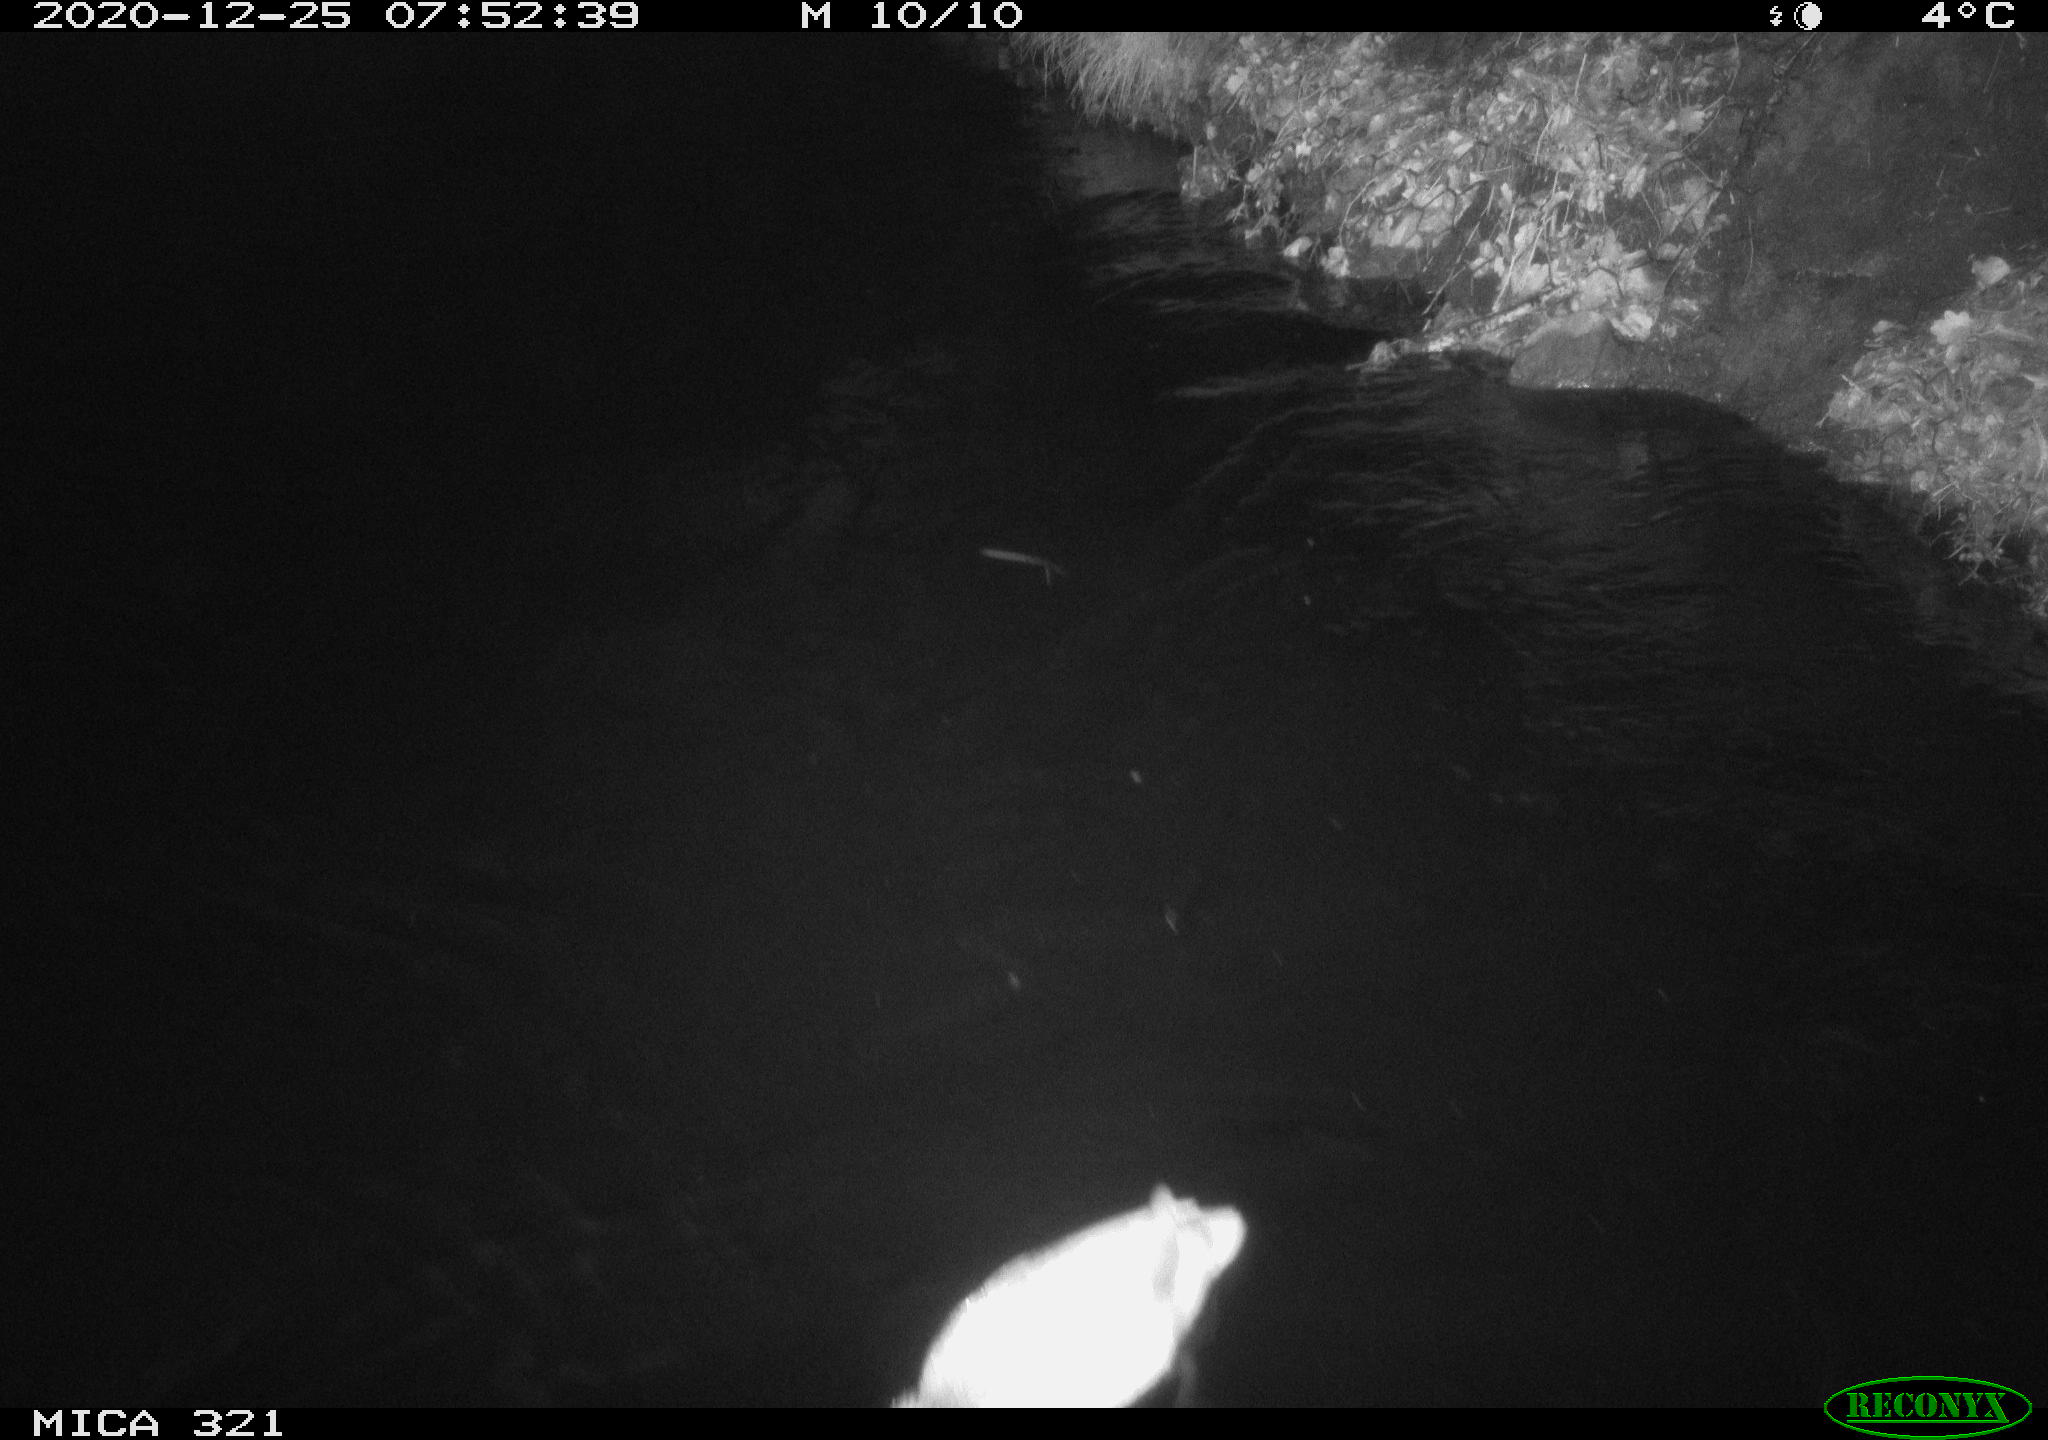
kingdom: Animalia
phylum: Chordata
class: Aves
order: Anseriformes
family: Anatidae
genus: Anas
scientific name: Anas platyrhynchos
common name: Mallard
